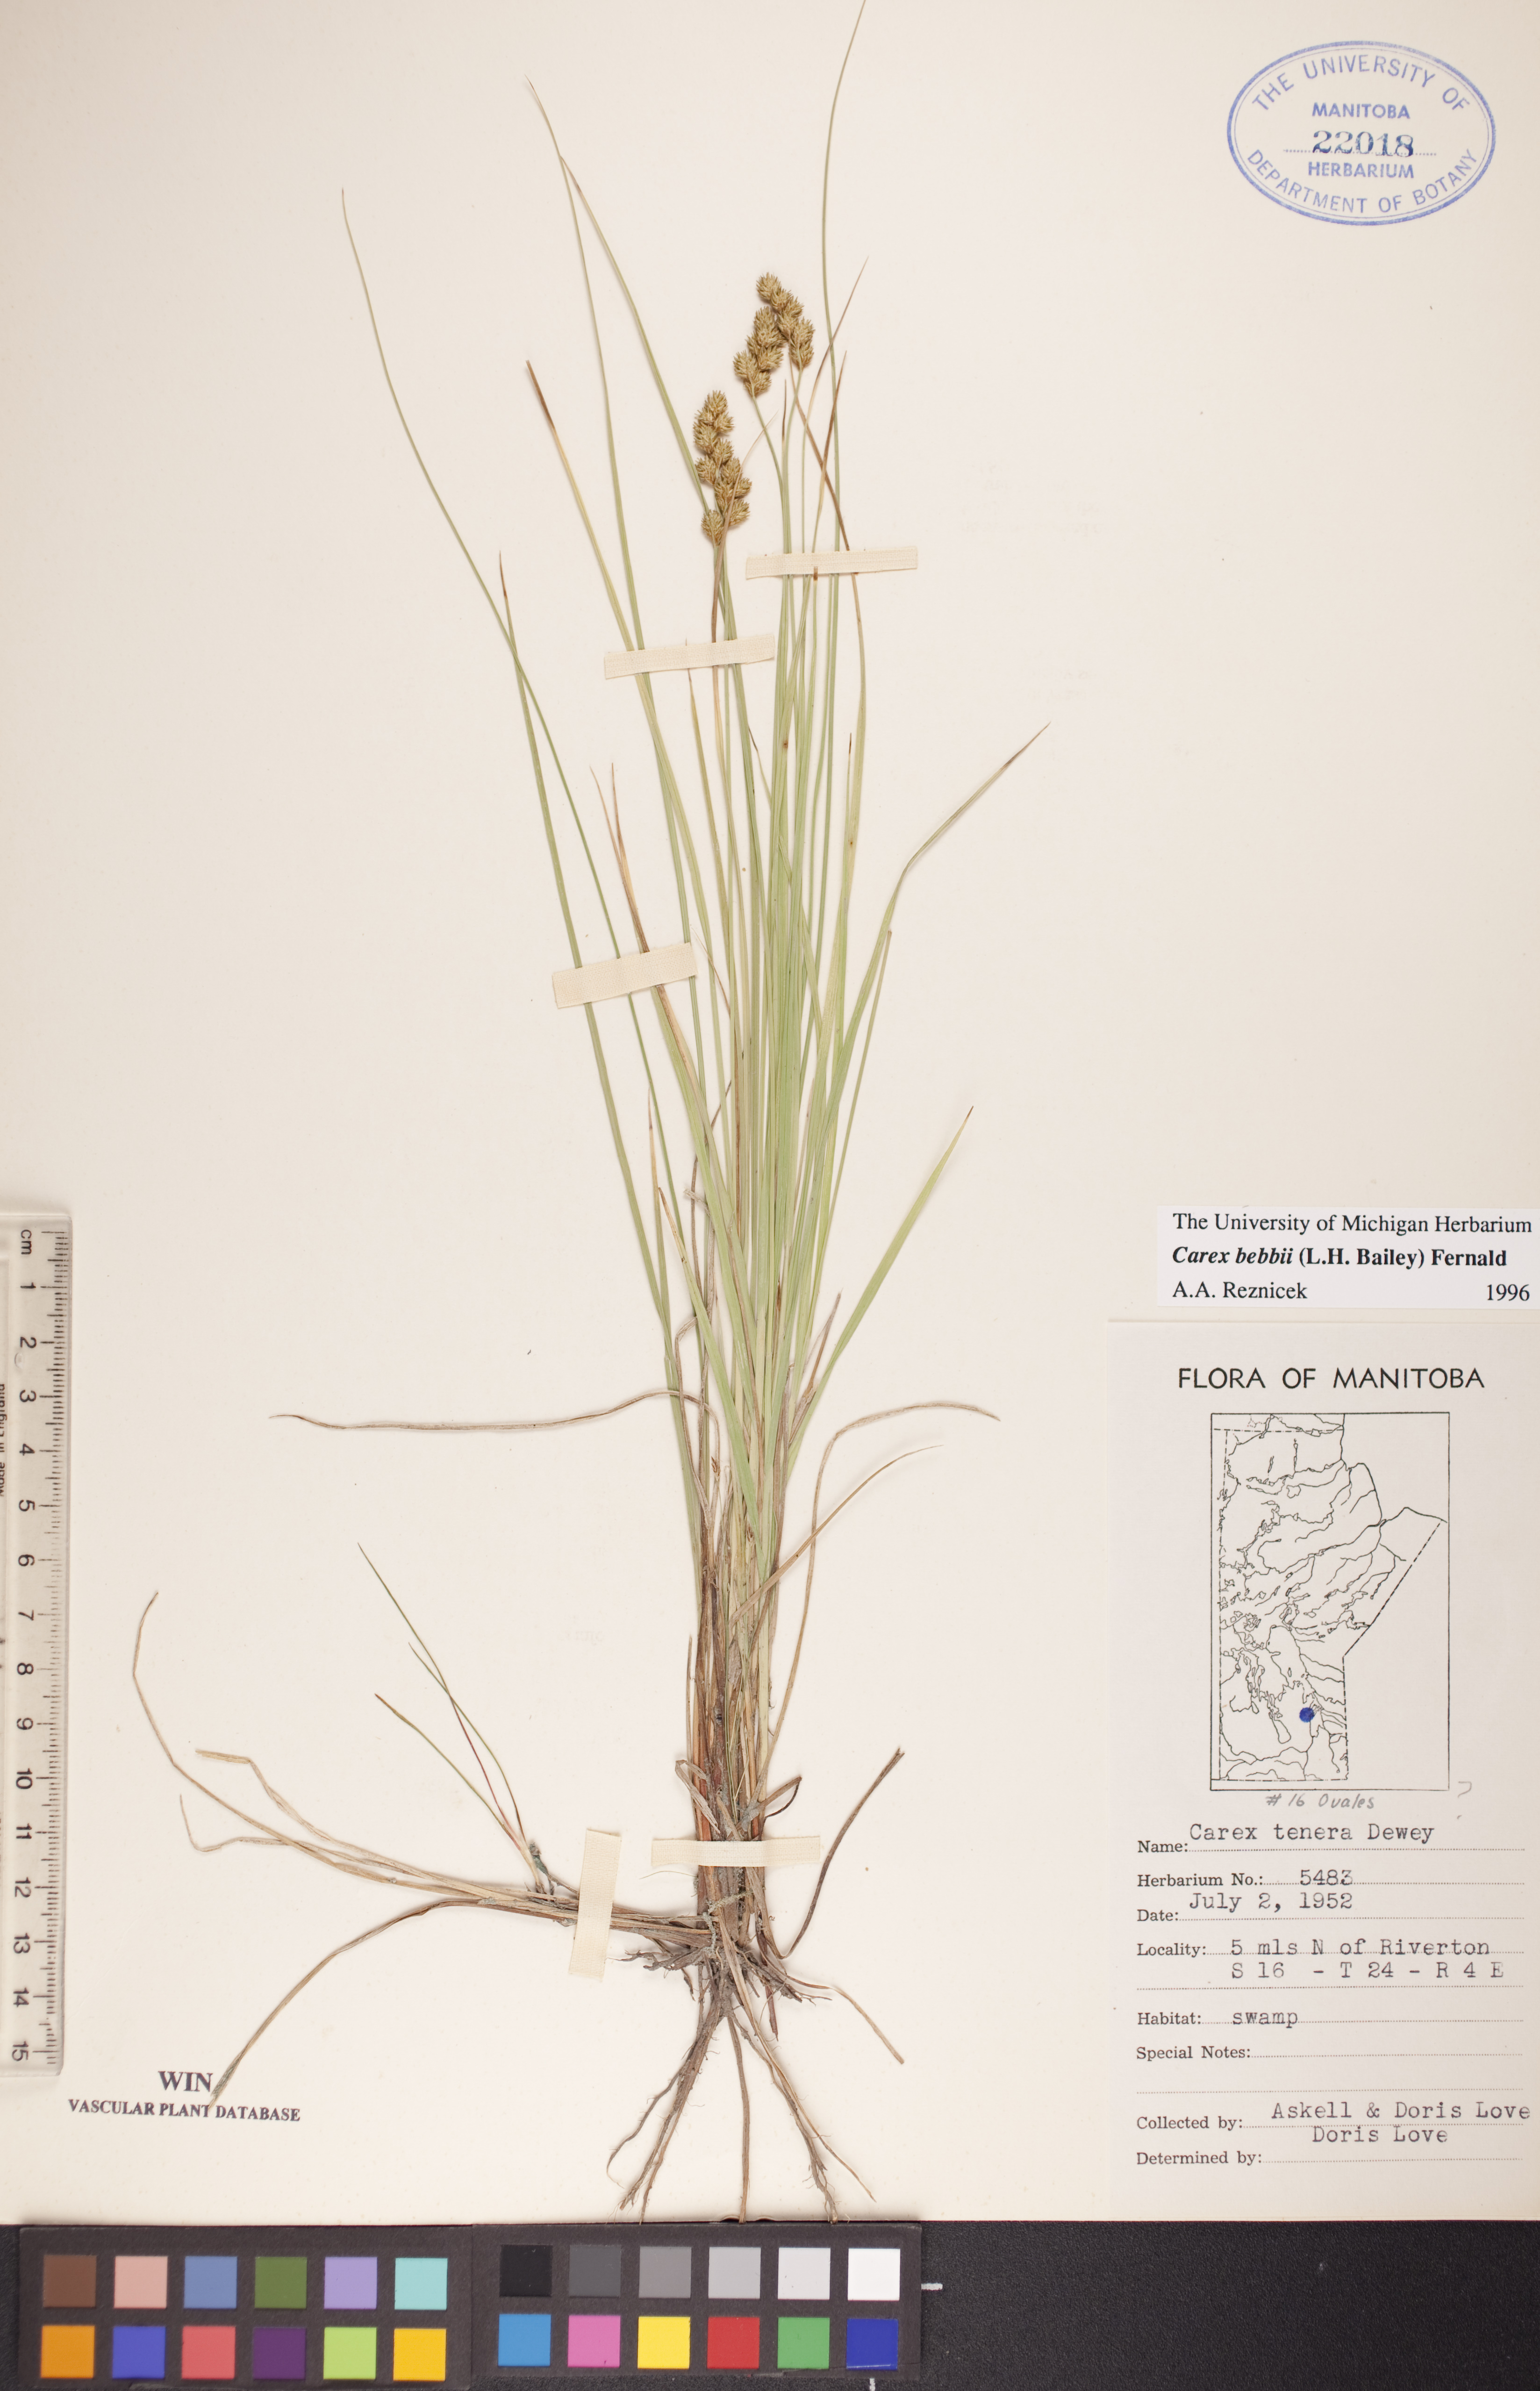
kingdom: Plantae
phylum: Tracheophyta
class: Liliopsida
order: Poales
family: Cyperaceae
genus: Carex
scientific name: Carex bebbii
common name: Bebb's sedge
